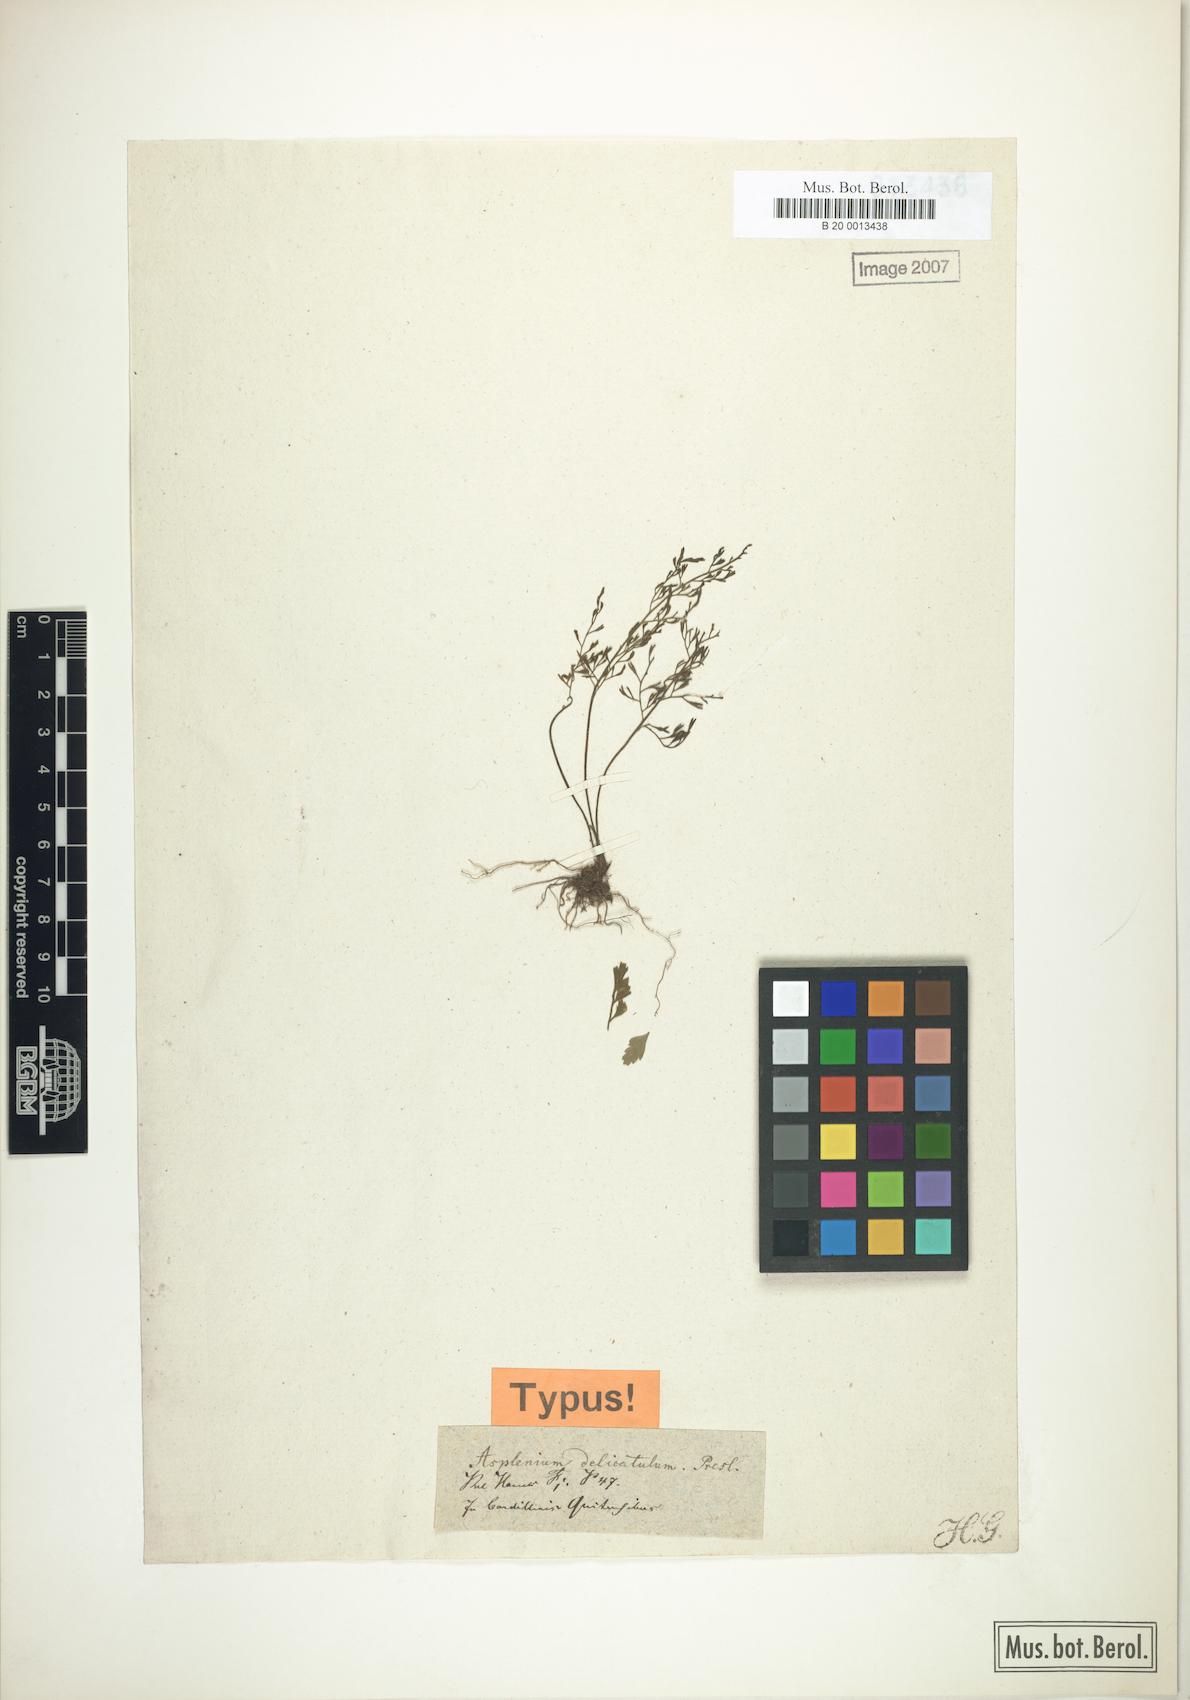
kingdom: Plantae
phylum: Tracheophyta
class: Polypodiopsida
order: Polypodiales
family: Aspleniaceae
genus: Asplenium
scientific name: Asplenium delicatulum
